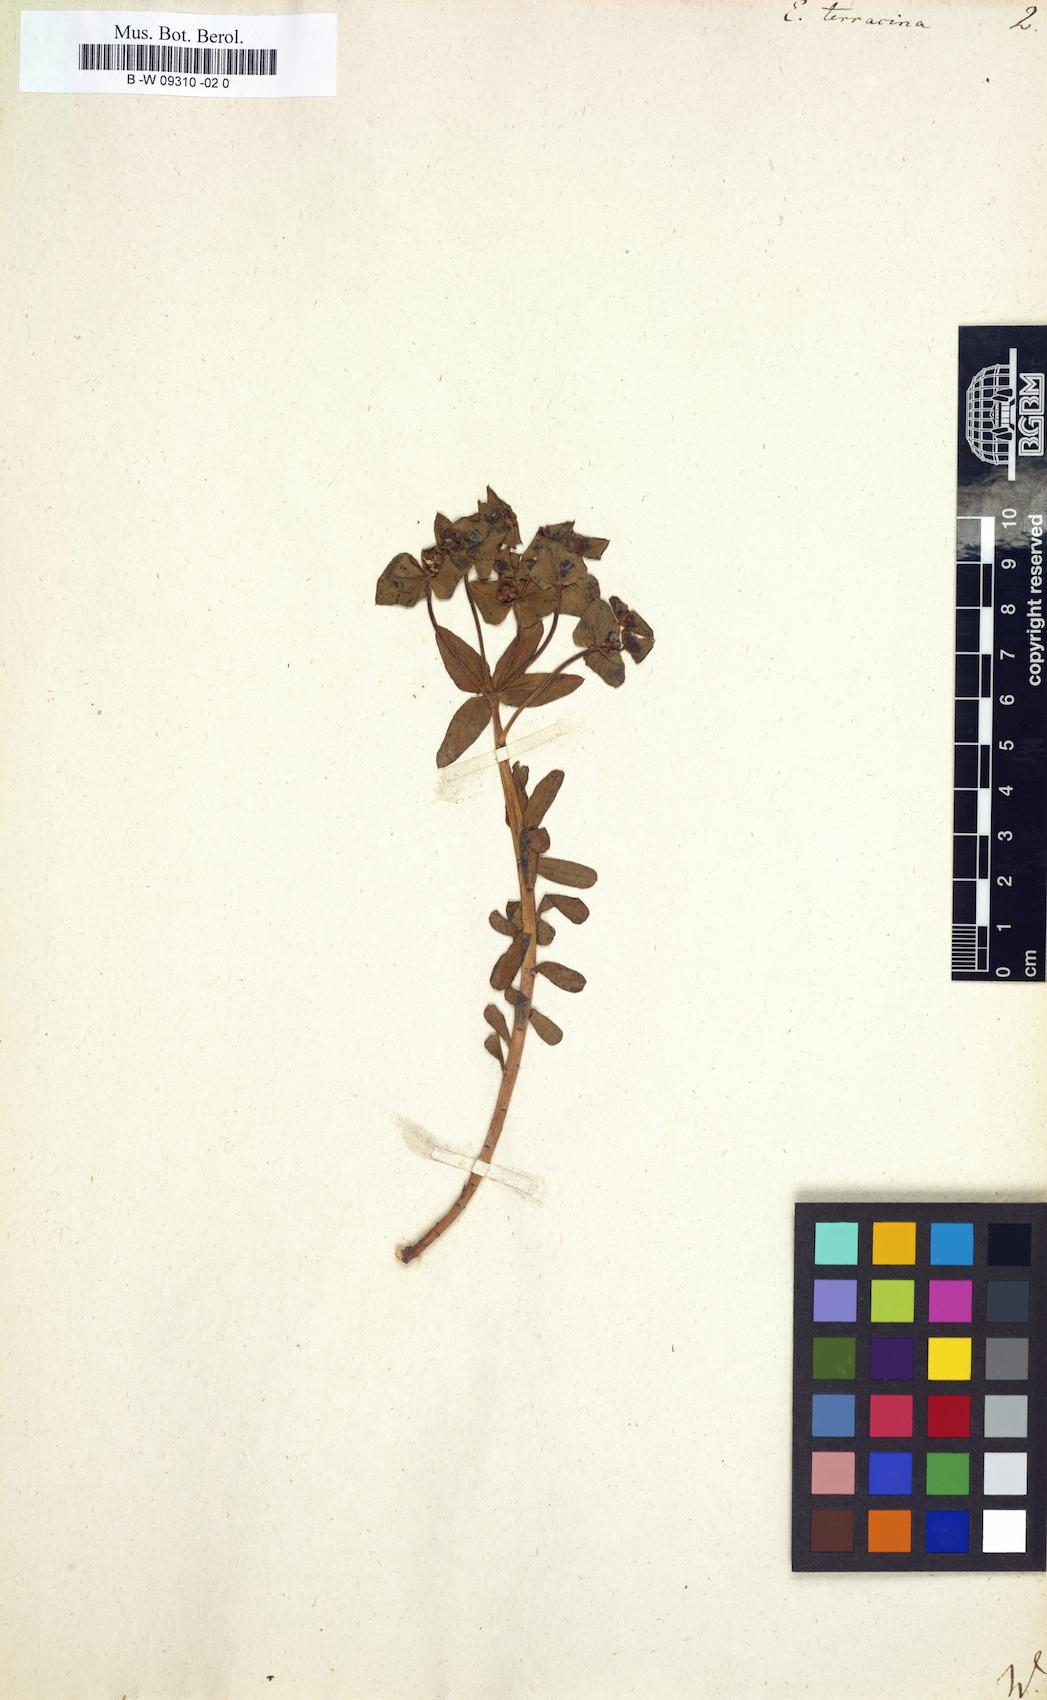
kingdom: Plantae
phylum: Tracheophyta
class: Magnoliopsida
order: Malpighiales
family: Euphorbiaceae
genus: Euphorbia
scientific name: Euphorbia terracina
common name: Geraldton carnation weed
